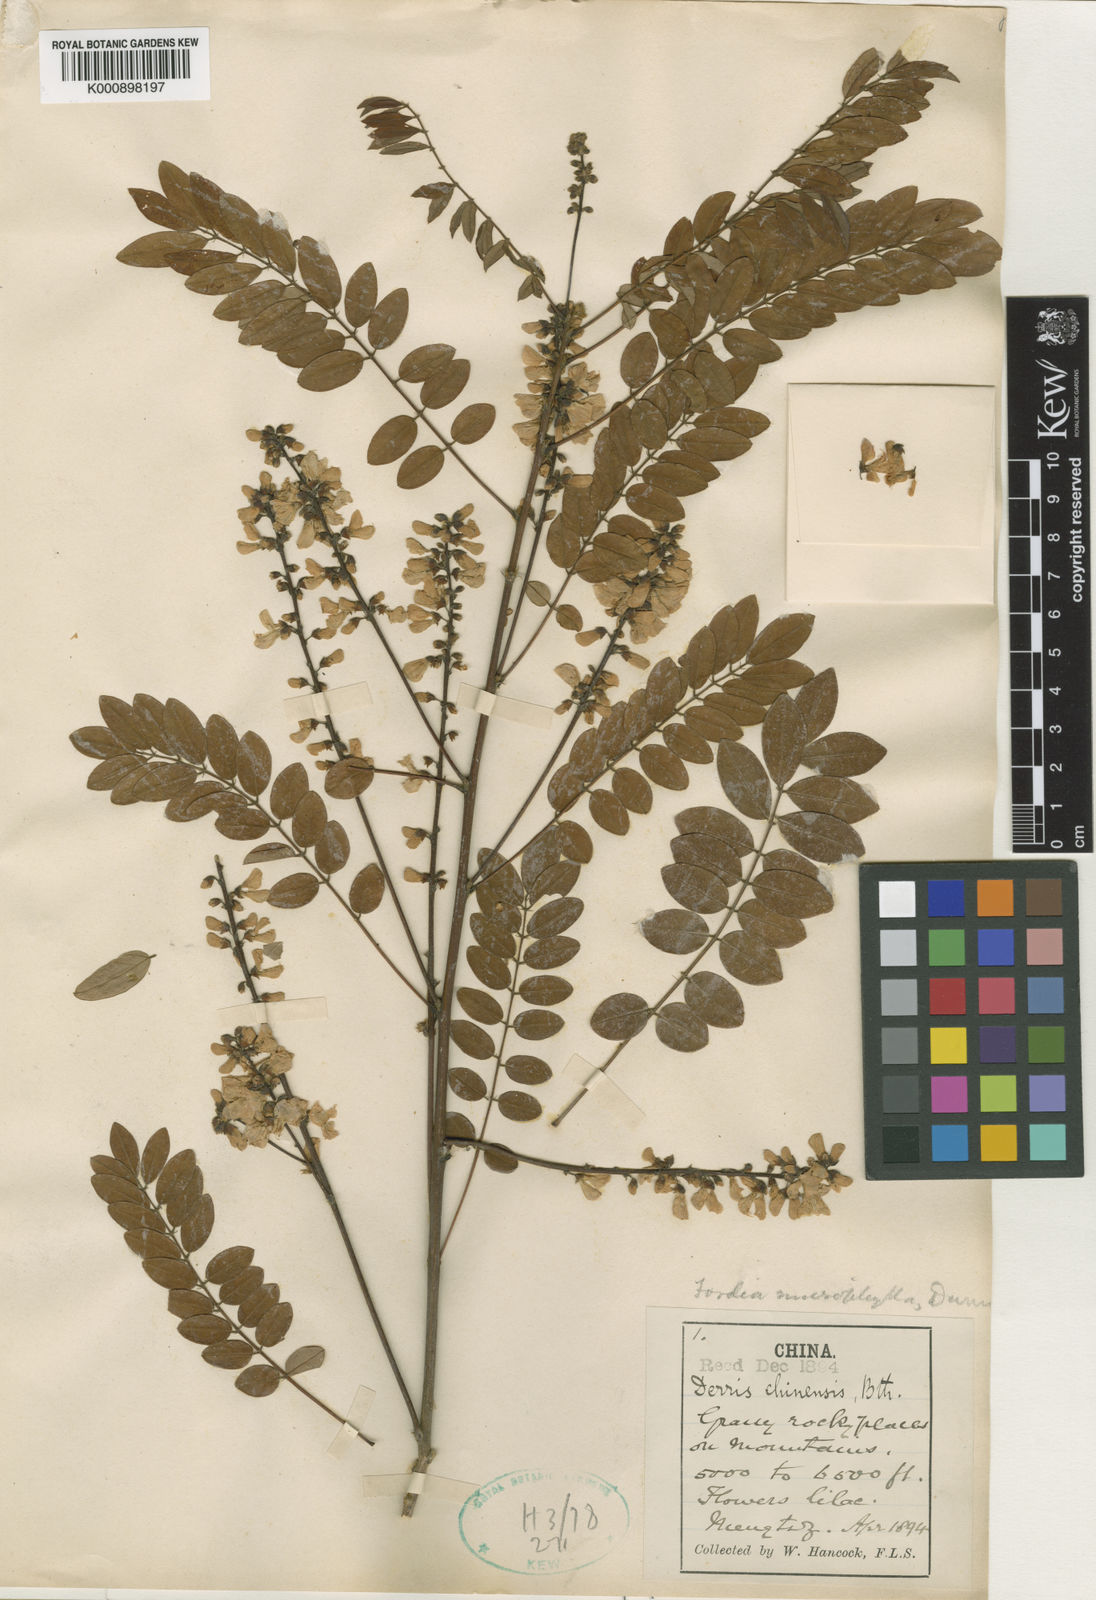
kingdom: Plantae
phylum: Tracheophyta
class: Magnoliopsida
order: Fabales
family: Fabaceae
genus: Millettia
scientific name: Millettia pulchra
